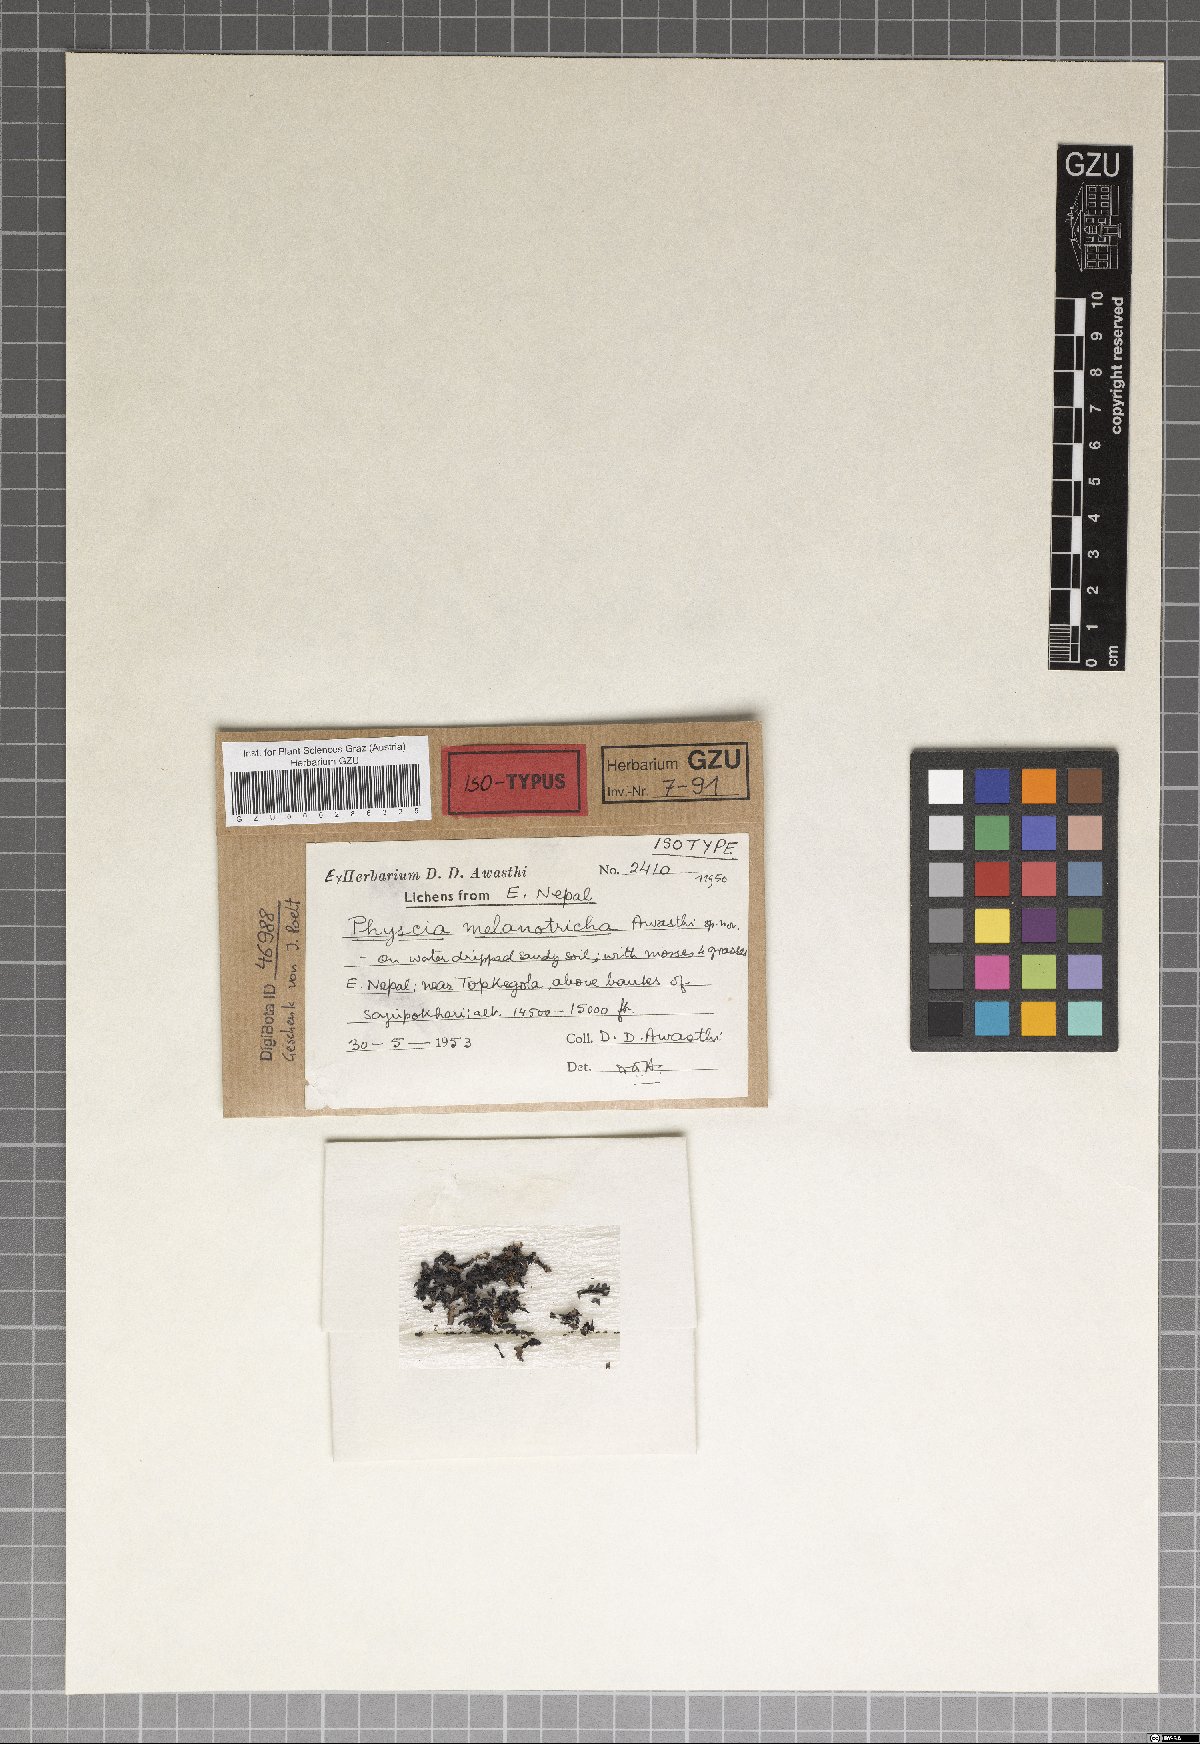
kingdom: Fungi
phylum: Ascomycota
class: Lecanoromycetes
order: Caliciales
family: Physciaceae
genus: Awasthia
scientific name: Awasthia melanotricha
